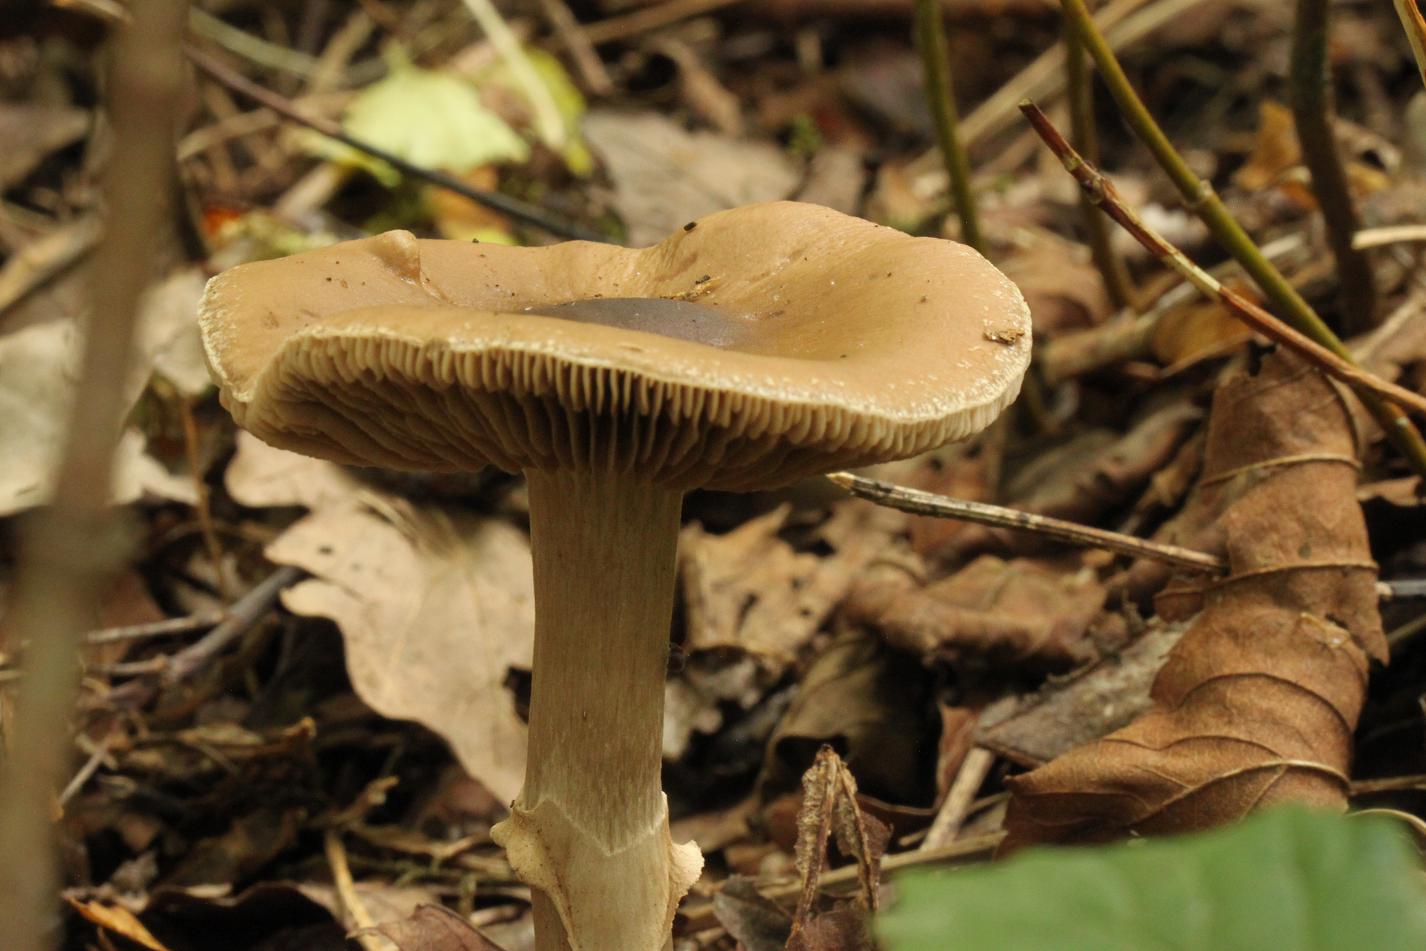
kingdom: Fungi
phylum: Basidiomycota
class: Agaricomycetes
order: Agaricales
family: Tubariaceae
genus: Cyclocybe
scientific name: Cyclocybe erebia
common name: mørk agerhat
